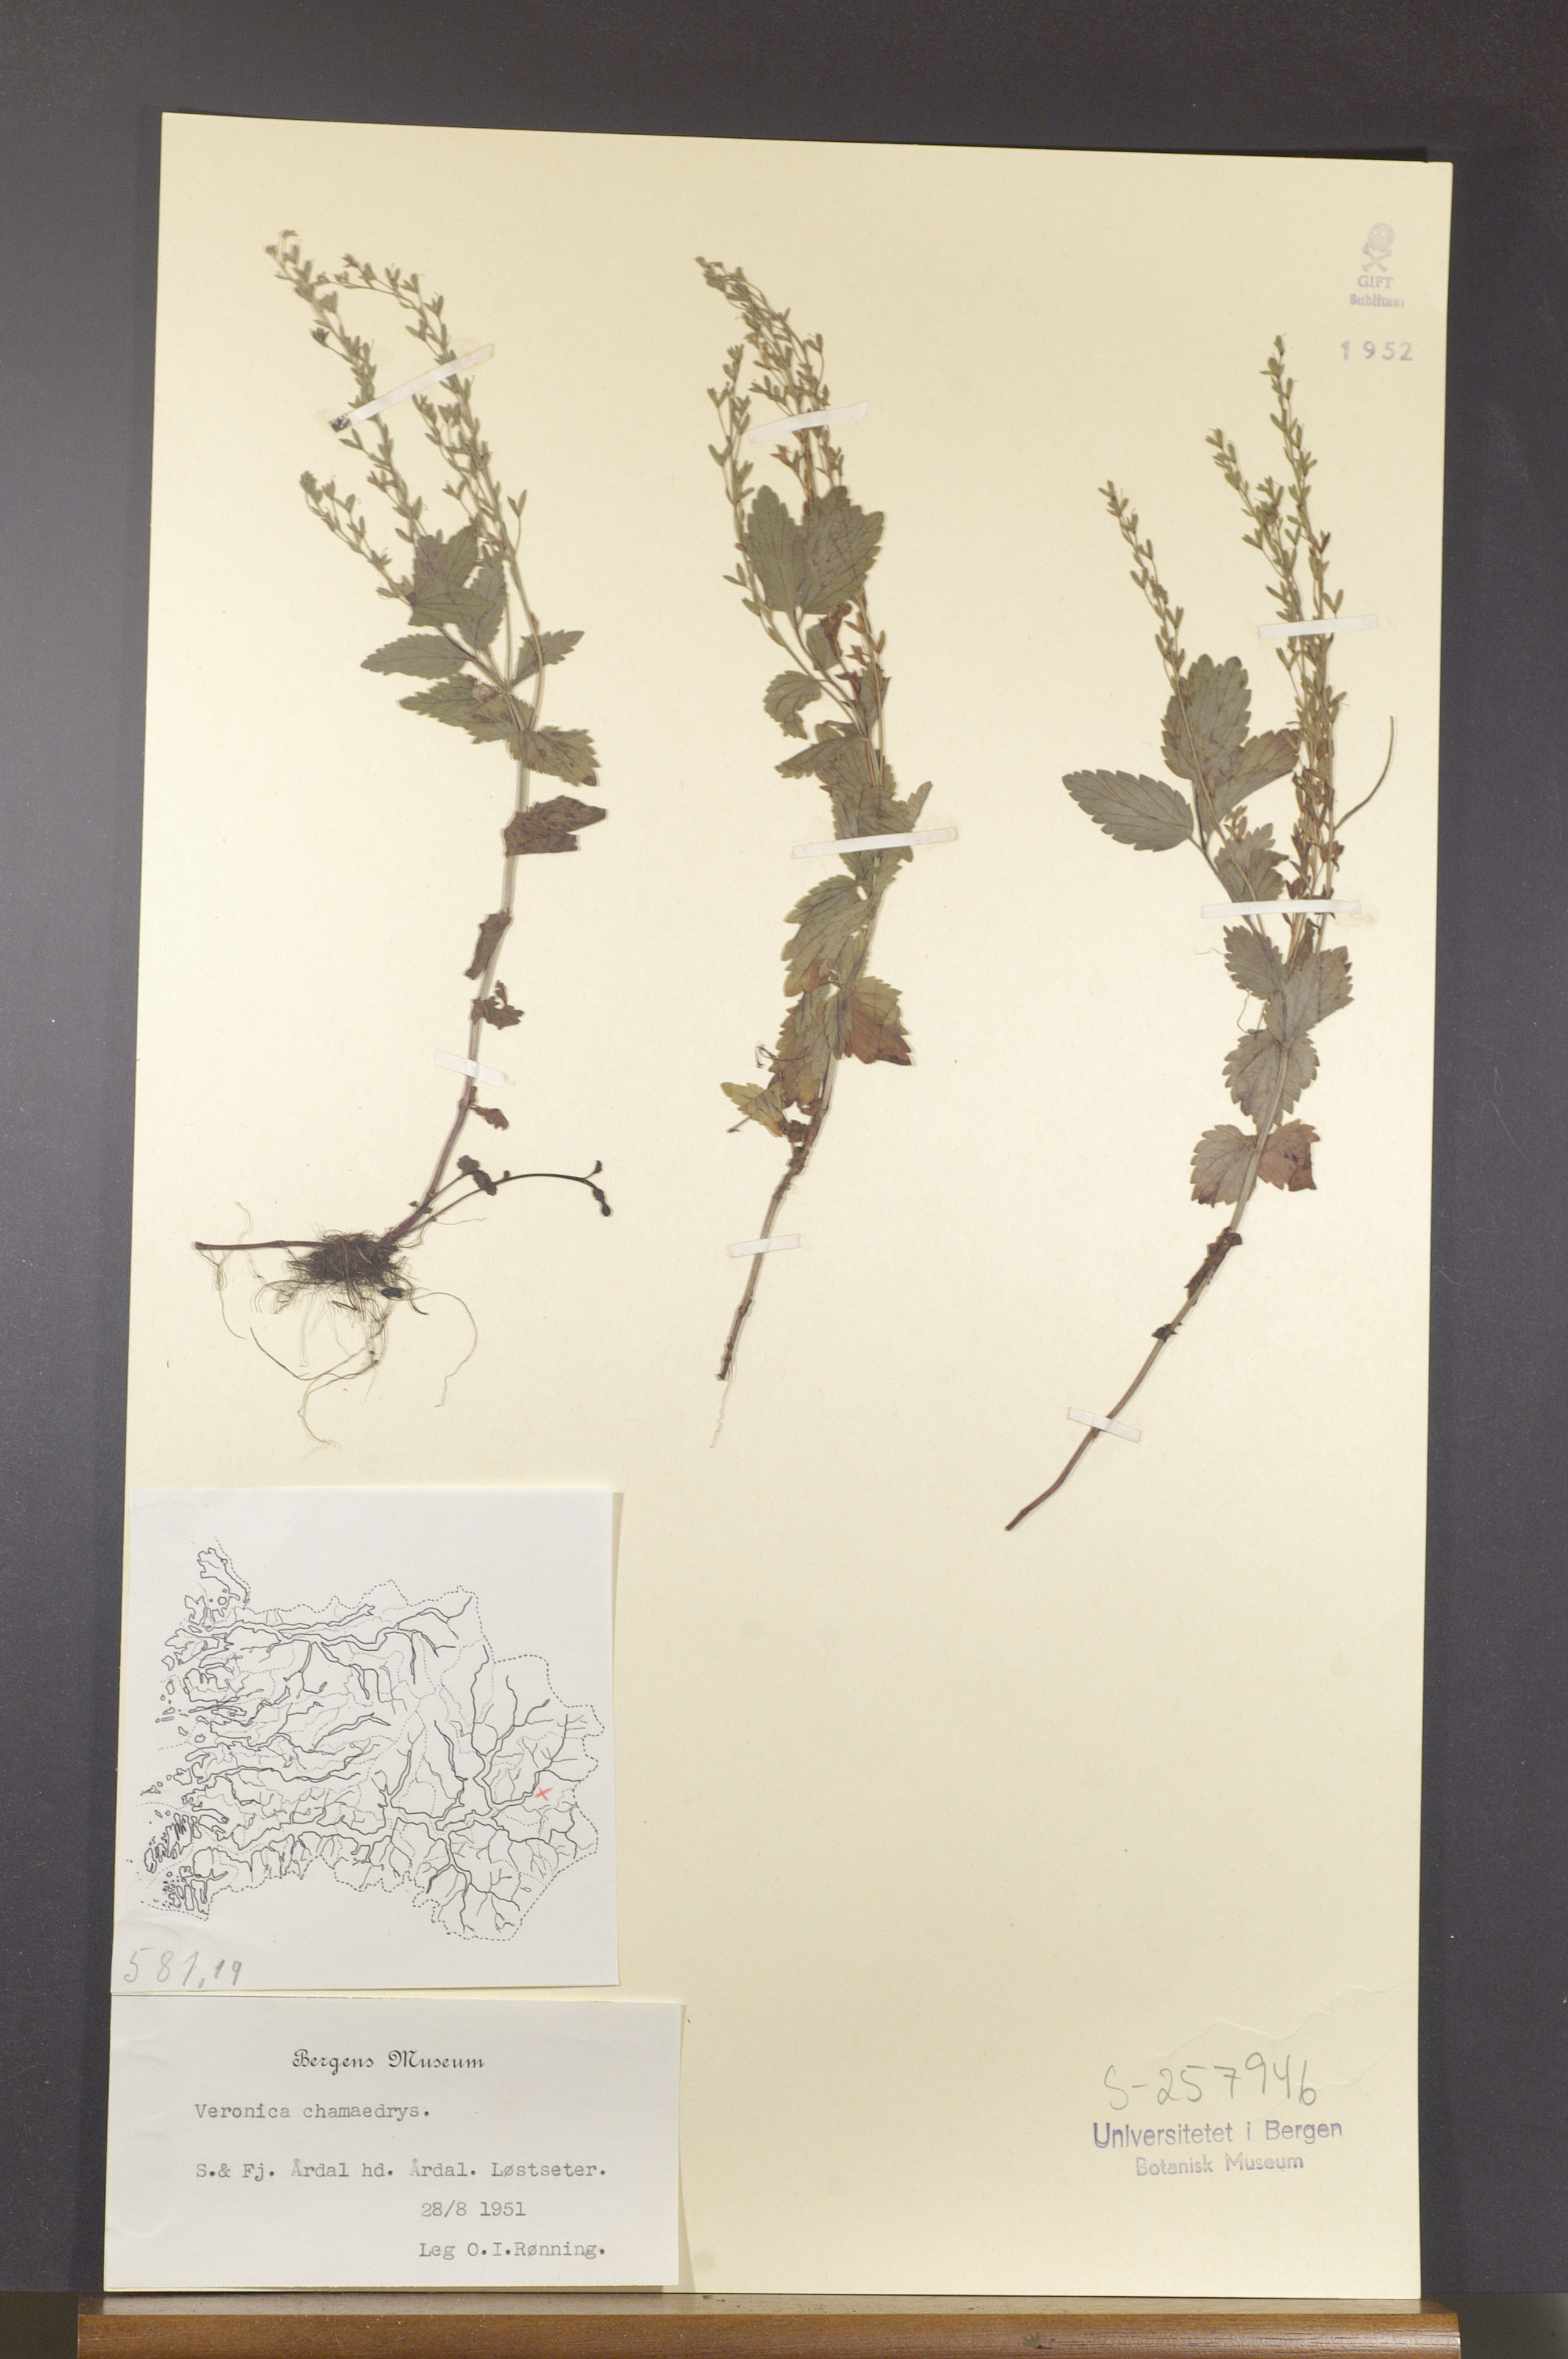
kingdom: Plantae
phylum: Tracheophyta
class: Magnoliopsida
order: Lamiales
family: Plantaginaceae
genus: Veronica
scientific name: Veronica chamaedrys
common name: Germander speedwell
